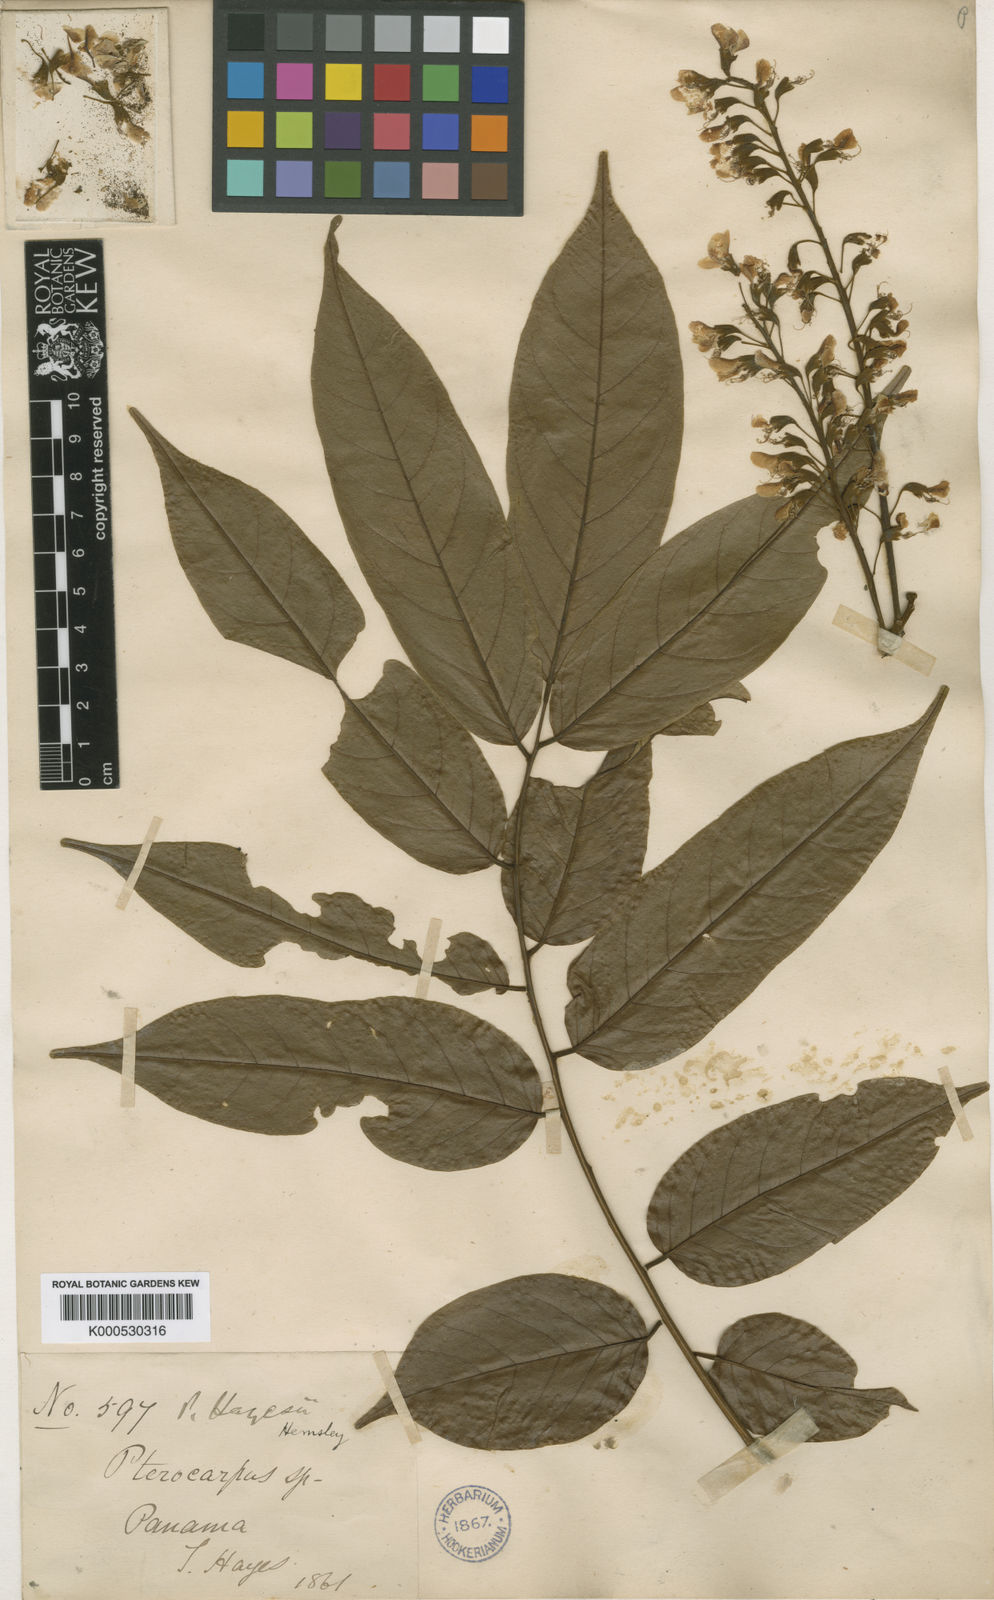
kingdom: Plantae
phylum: Tracheophyta
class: Magnoliopsida
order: Fabales
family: Fabaceae
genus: Pterocarpus
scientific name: Pterocarpus rohrii
